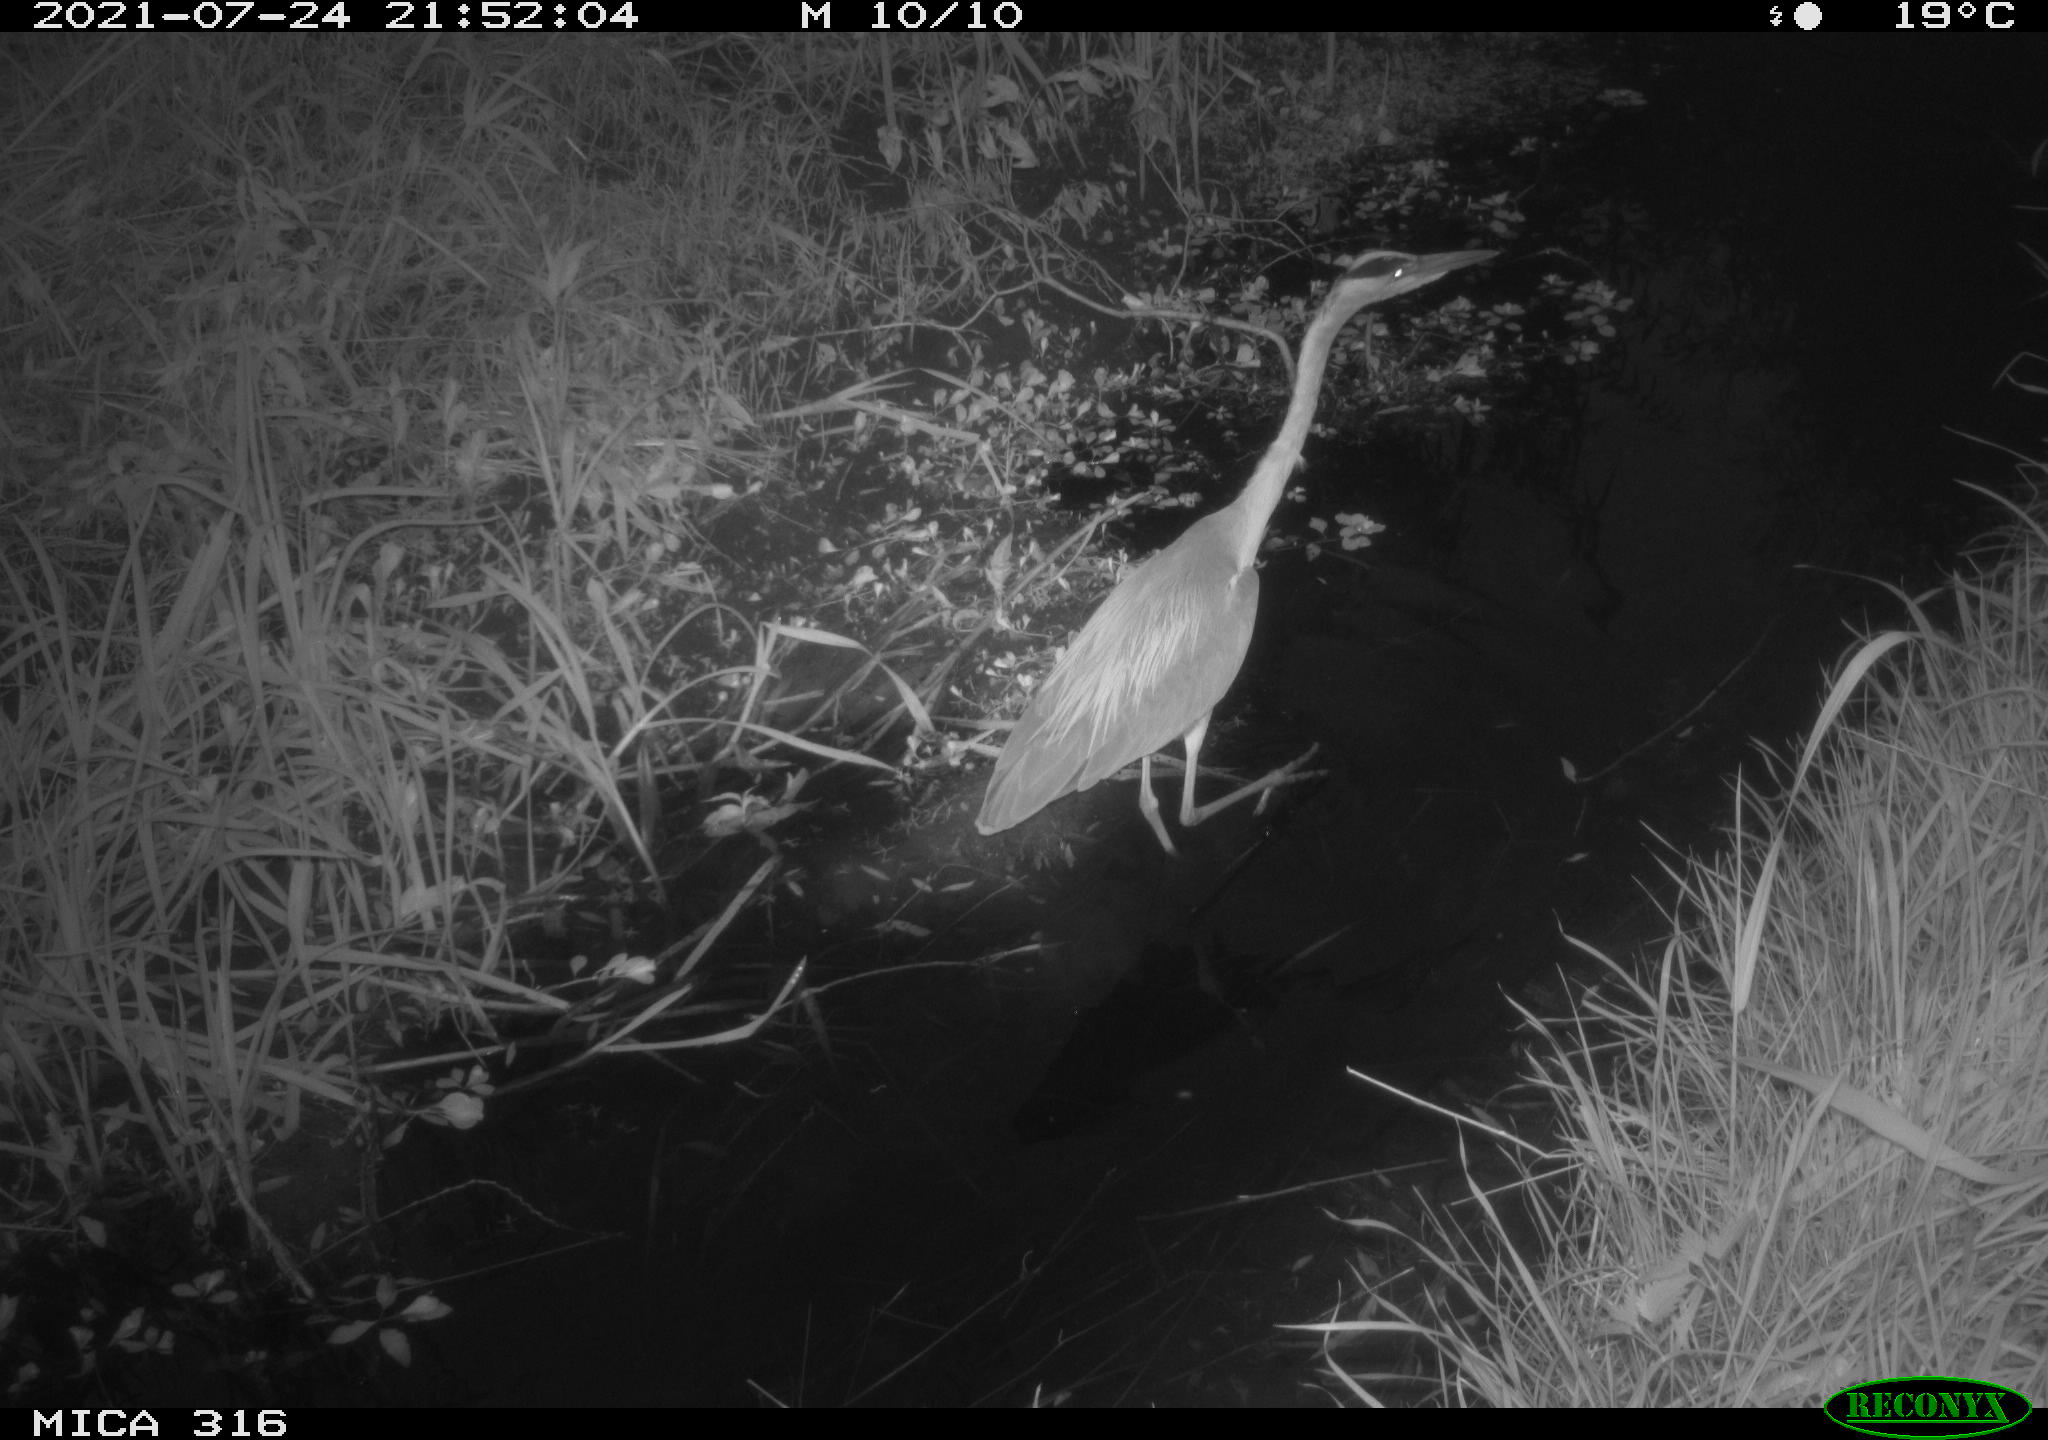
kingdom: Animalia
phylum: Chordata
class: Aves
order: Pelecaniformes
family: Ardeidae
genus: Ardea
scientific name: Ardea
